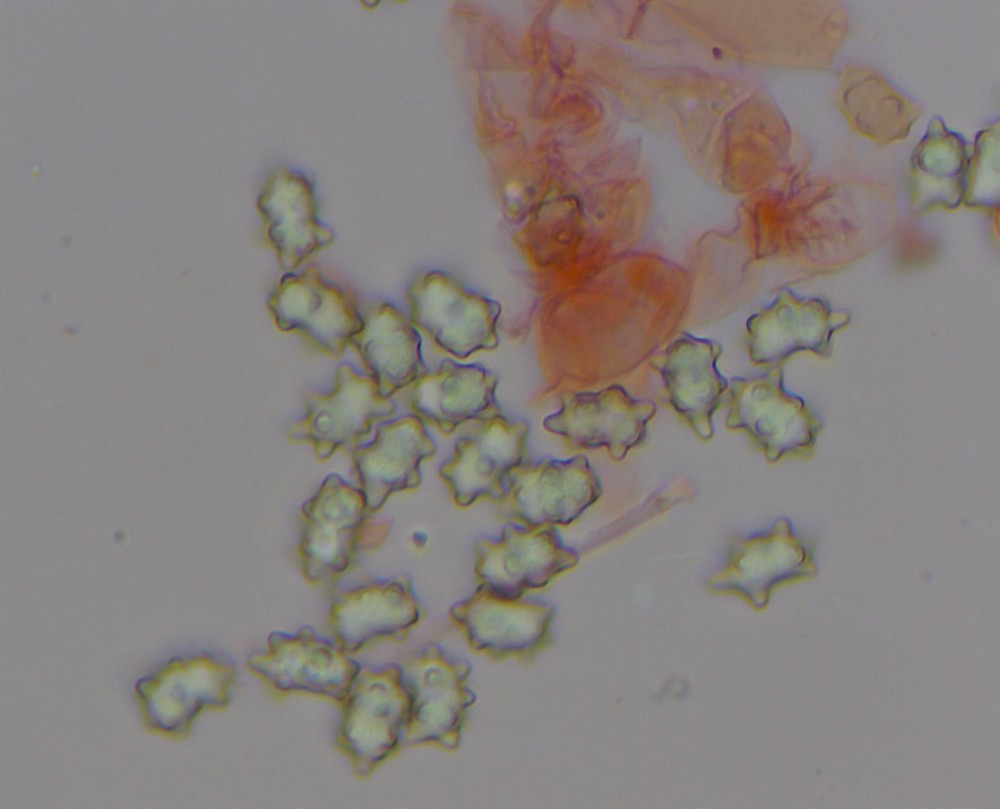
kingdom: Fungi
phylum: Basidiomycota
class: Agaricomycetes
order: Agaricales
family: Inocybaceae
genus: Inocybe
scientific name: Inocybe lanuginosa
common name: uldskællet trævlhat
